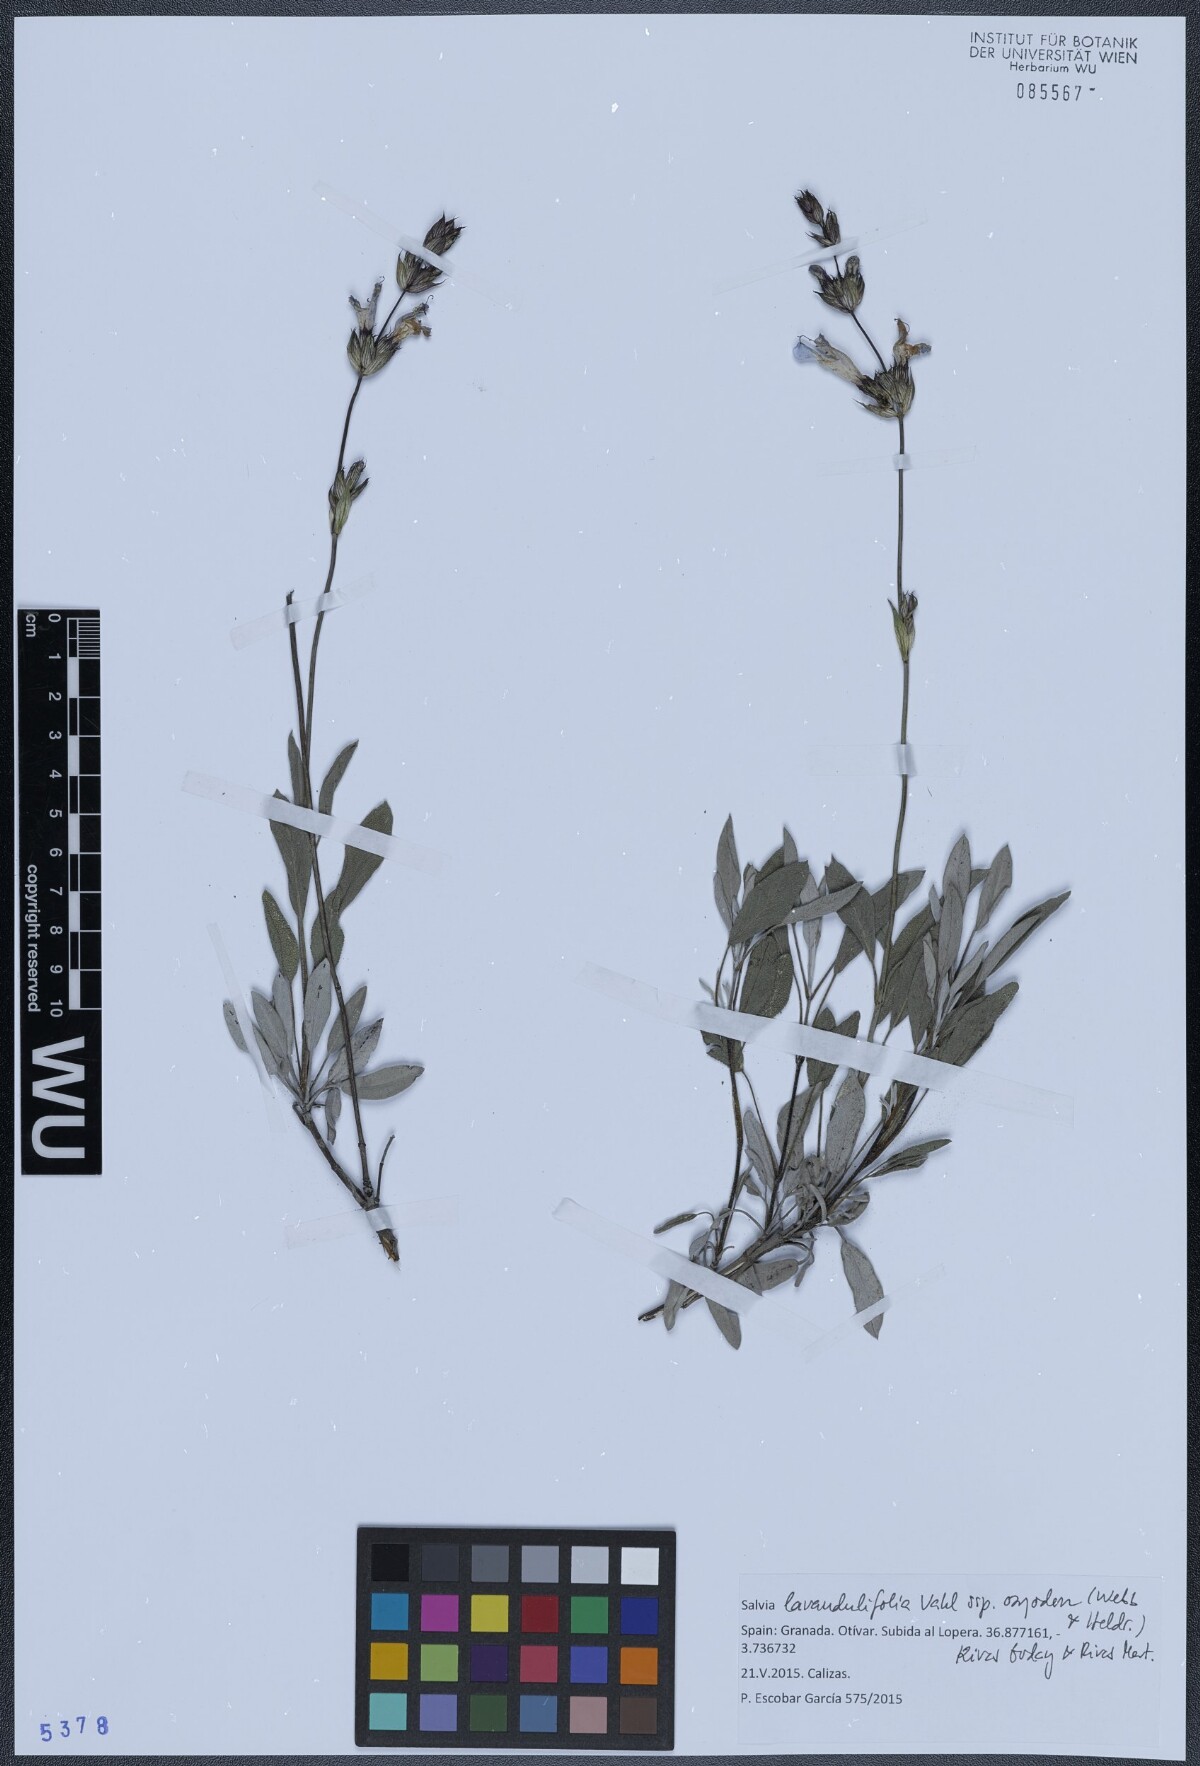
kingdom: Plantae
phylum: Tracheophyta
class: Magnoliopsida
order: Lamiales
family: Lamiaceae
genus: Salvia
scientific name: Salvia officinalis
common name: Sage
